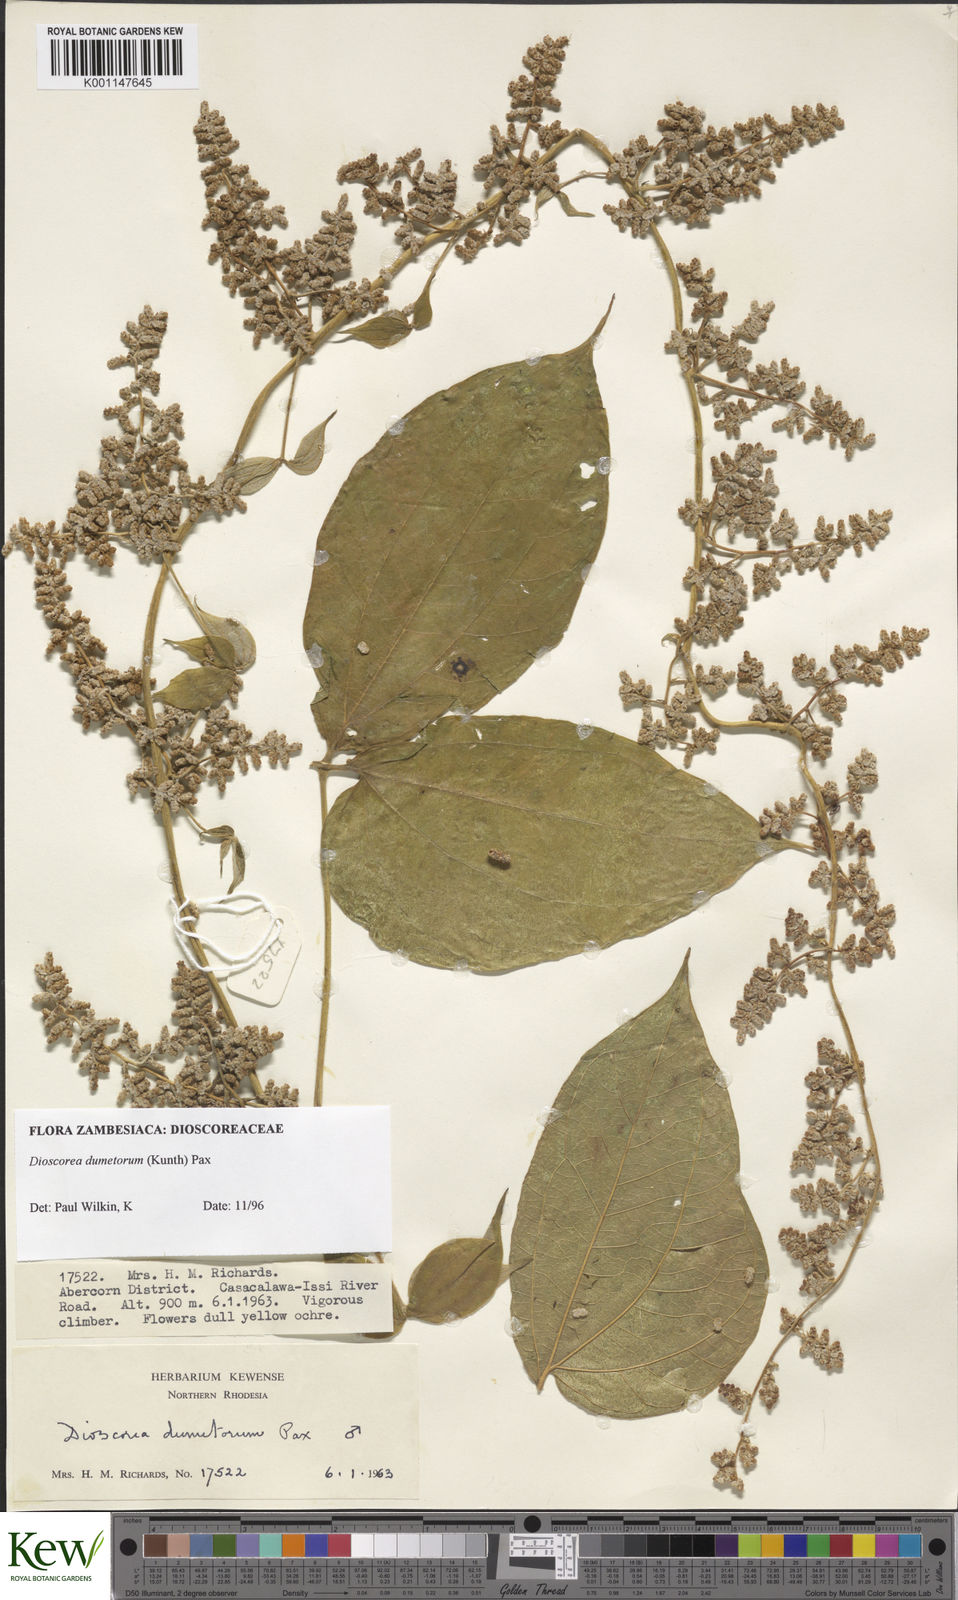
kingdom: Plantae
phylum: Tracheophyta
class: Liliopsida
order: Dioscoreales
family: Dioscoreaceae
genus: Dioscorea
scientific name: Dioscorea dumetorum
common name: African bitter yam
